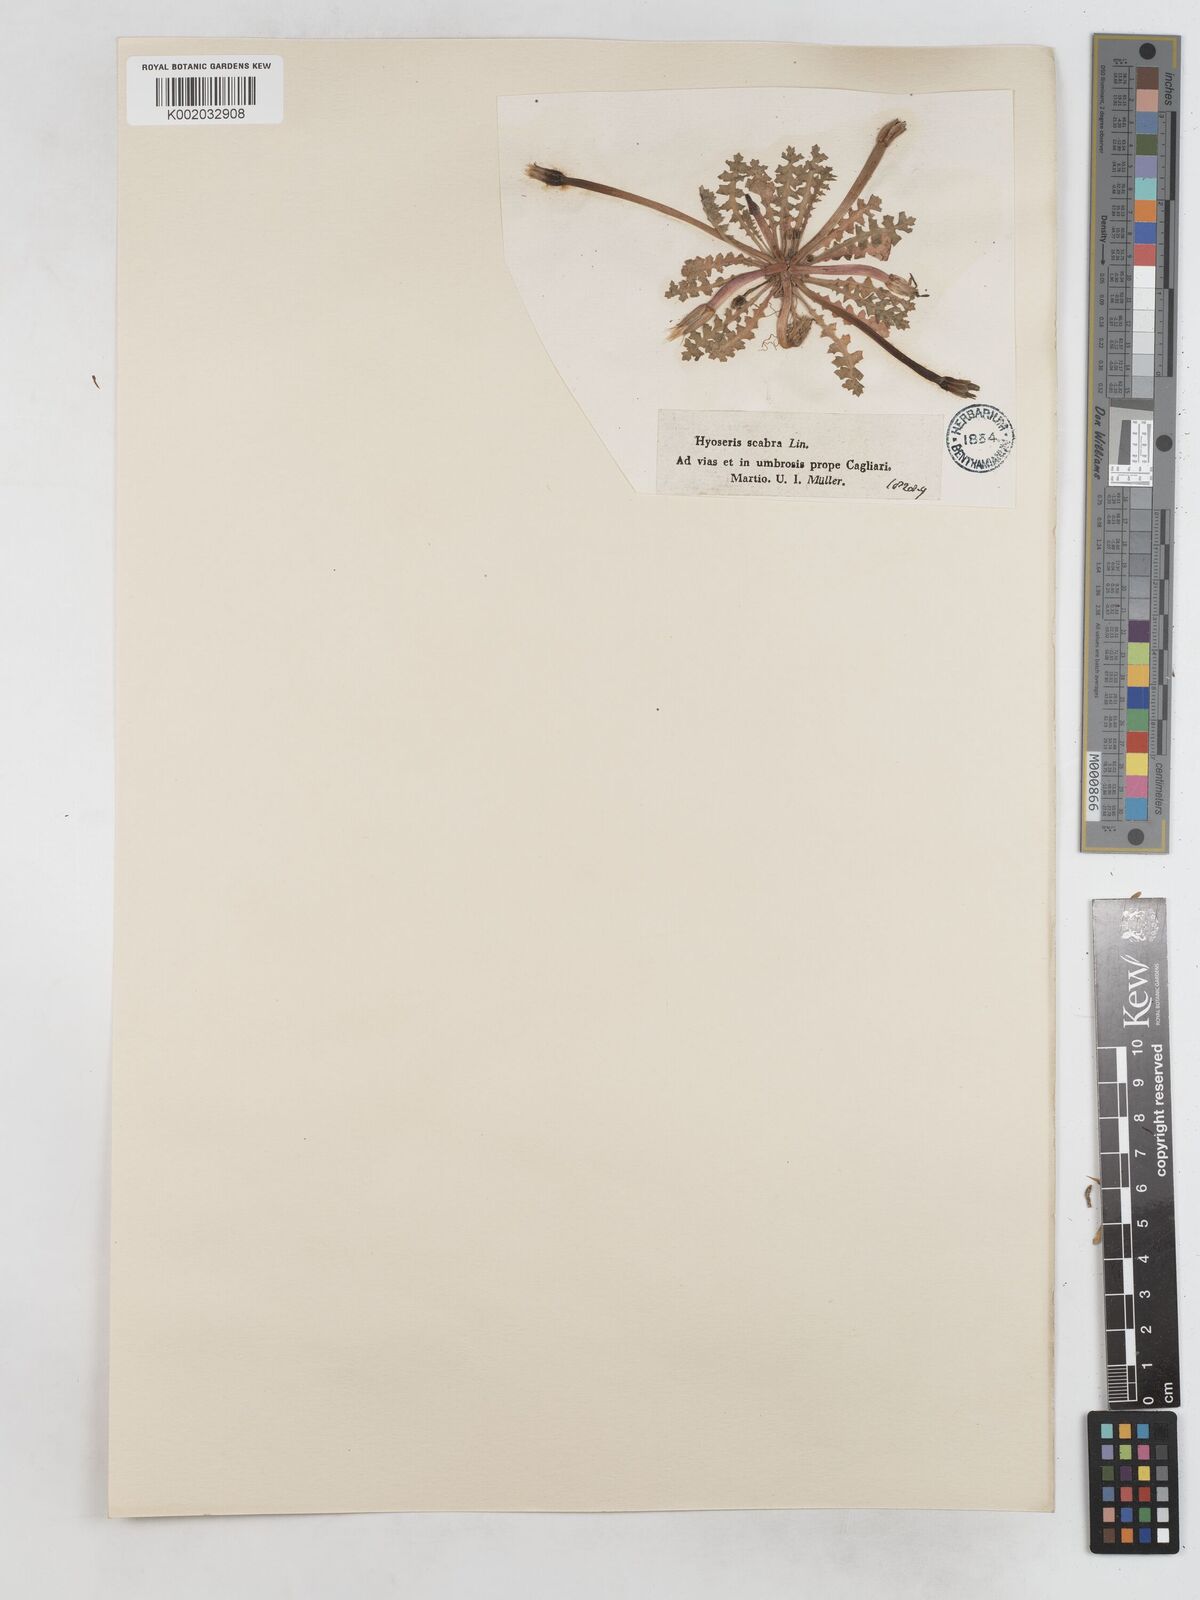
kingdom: Plantae
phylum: Tracheophyta
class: Magnoliopsida
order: Asterales
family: Asteraceae
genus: Hyoseris
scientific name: Hyoseris scabra
